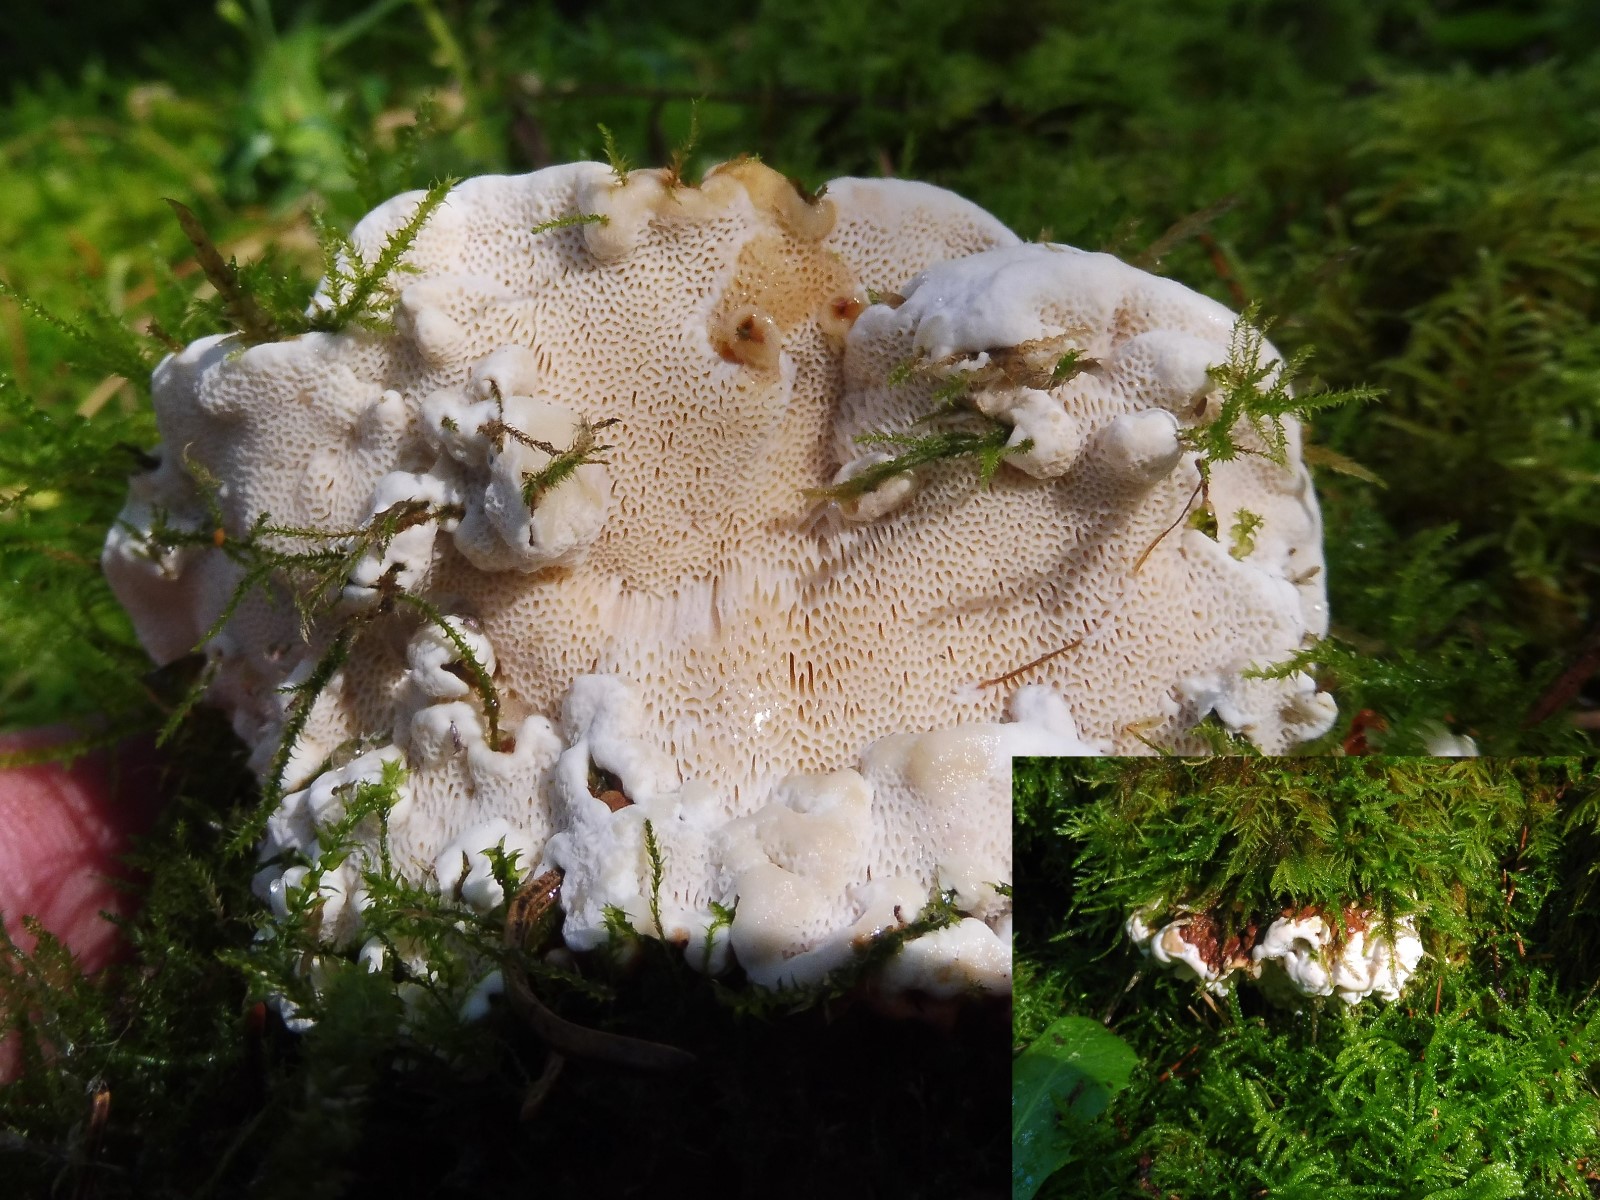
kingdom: Fungi
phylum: Basidiomycota
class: Agaricomycetes
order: Russulales
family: Bondarzewiaceae
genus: Heterobasidion
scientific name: Heterobasidion annosum
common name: almindelig rodfordærver
